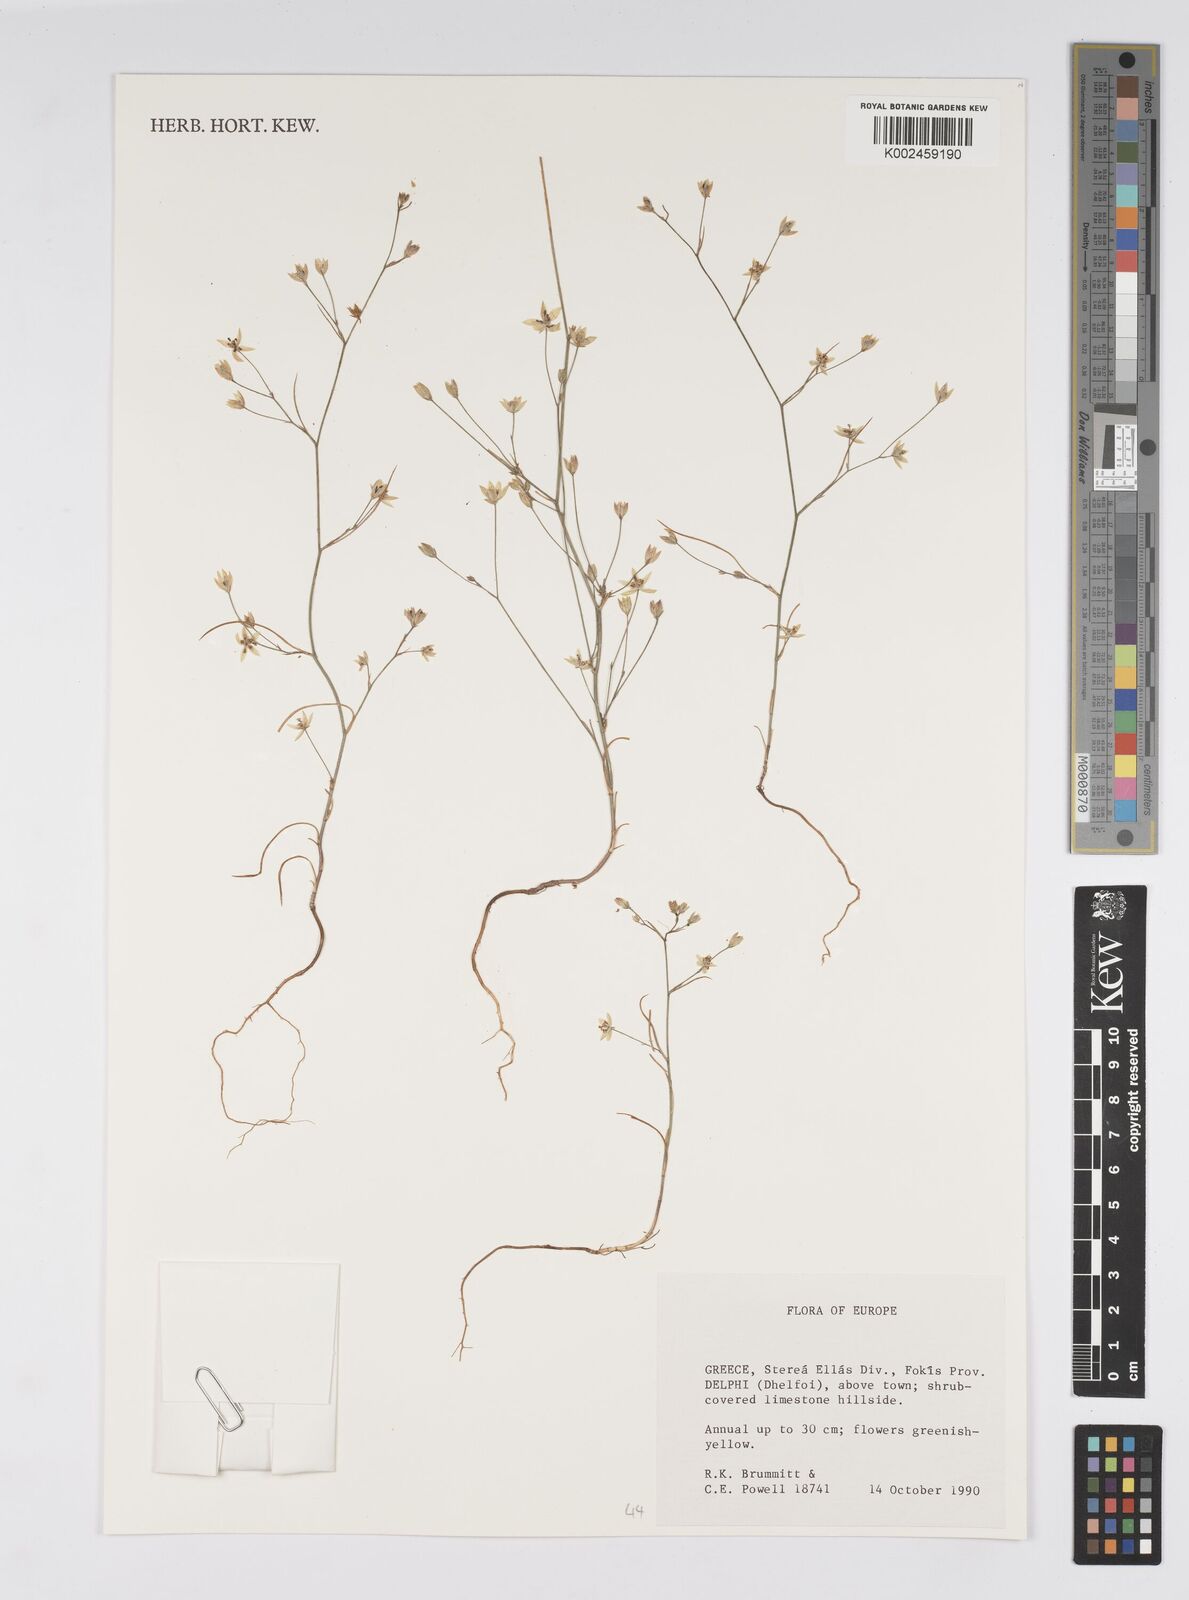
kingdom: Plantae
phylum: Tracheophyta
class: Magnoliopsida
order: Apiales
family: Apiaceae
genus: Bupleurum
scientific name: Bupleurum
